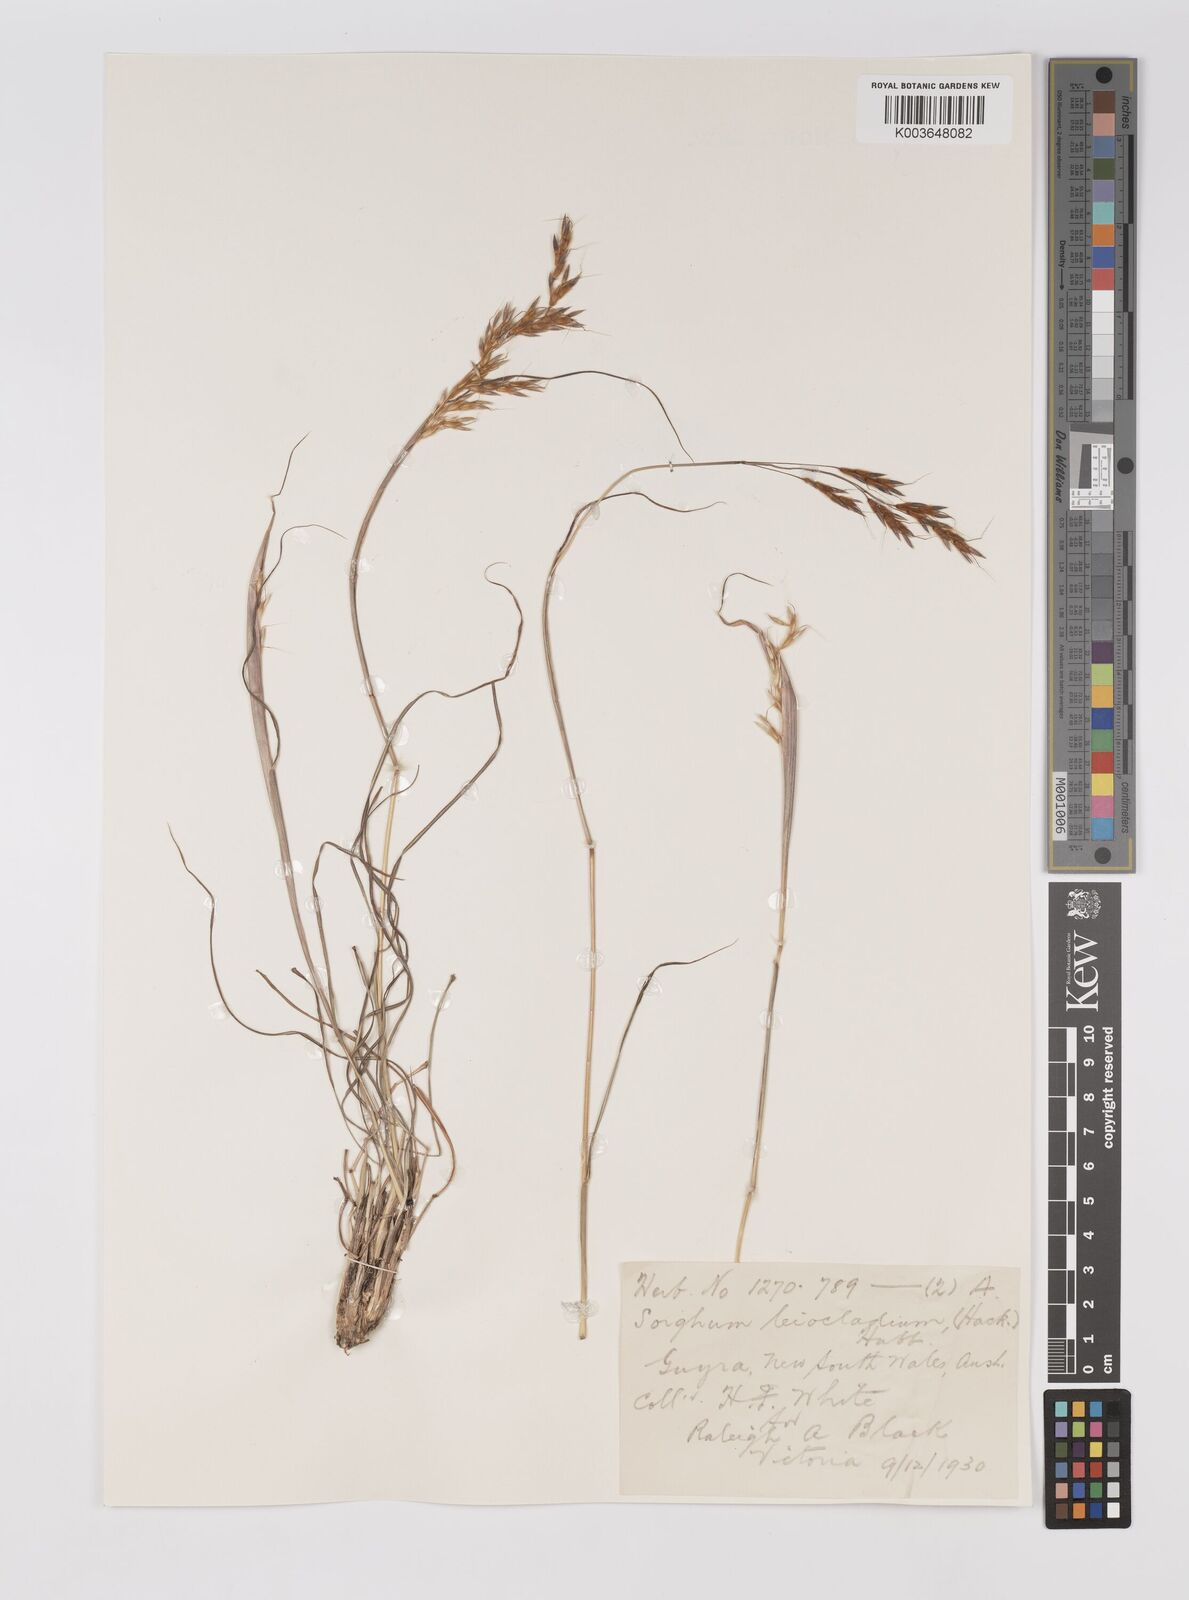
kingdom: Plantae
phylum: Tracheophyta
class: Liliopsida
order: Poales
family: Poaceae
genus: Sarga
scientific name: Sarga leioclada
